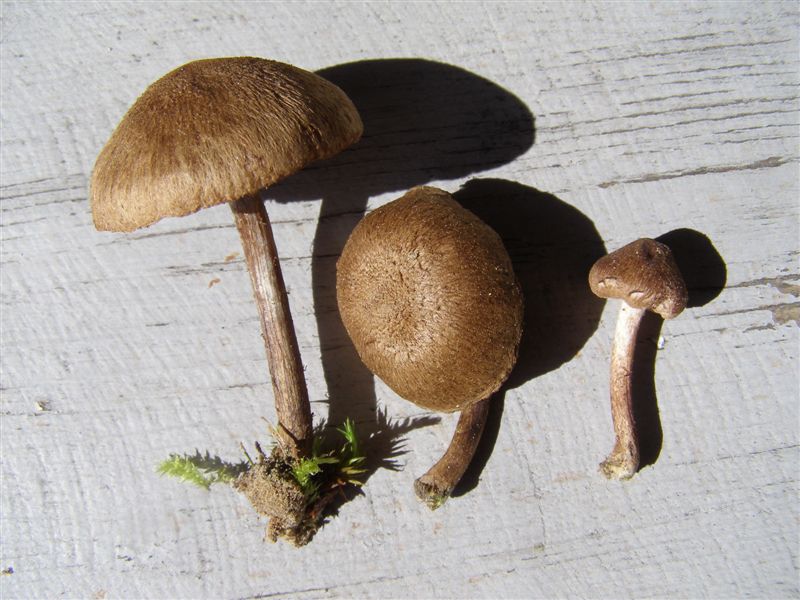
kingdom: Fungi
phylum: Basidiomycota
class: Agaricomycetes
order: Agaricales
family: Inocybaceae
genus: Inocybe
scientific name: Inocybe lacera
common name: laset trævlhat
